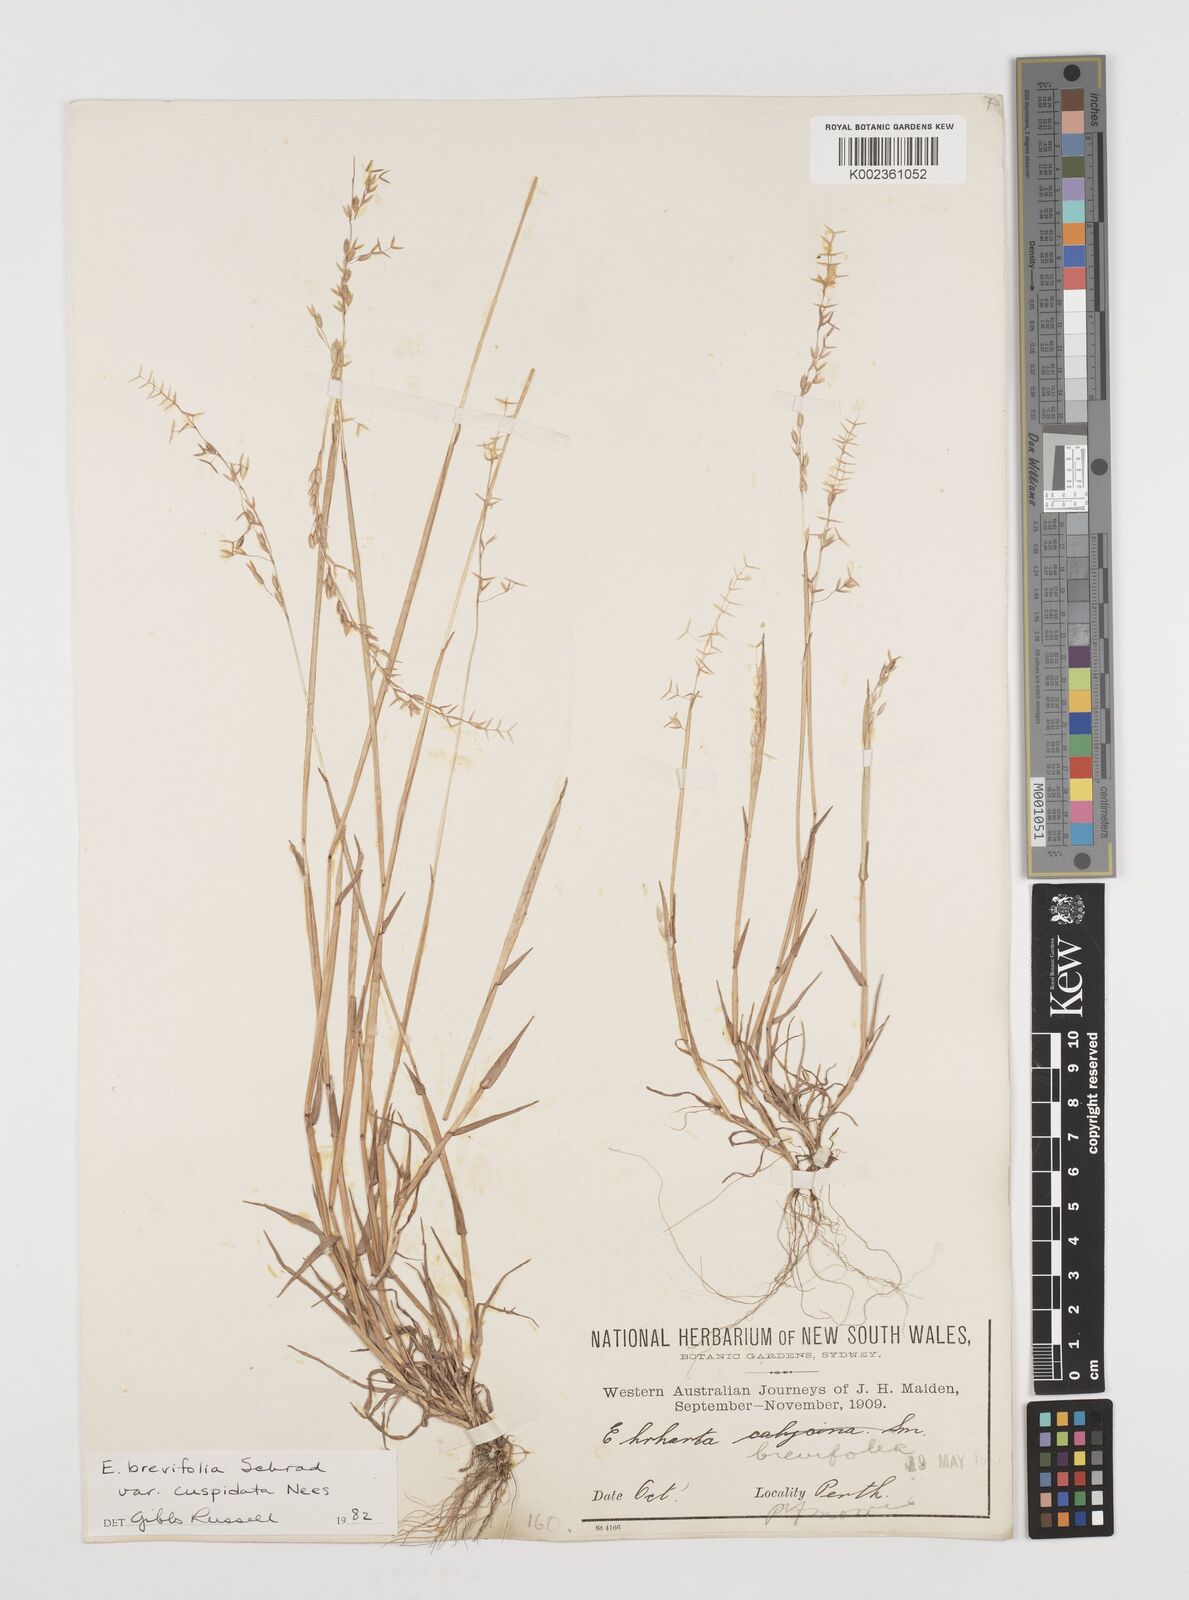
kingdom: Plantae
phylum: Tracheophyta
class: Liliopsida
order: Poales
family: Poaceae
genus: Ehrharta
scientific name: Ehrharta brevifolia
